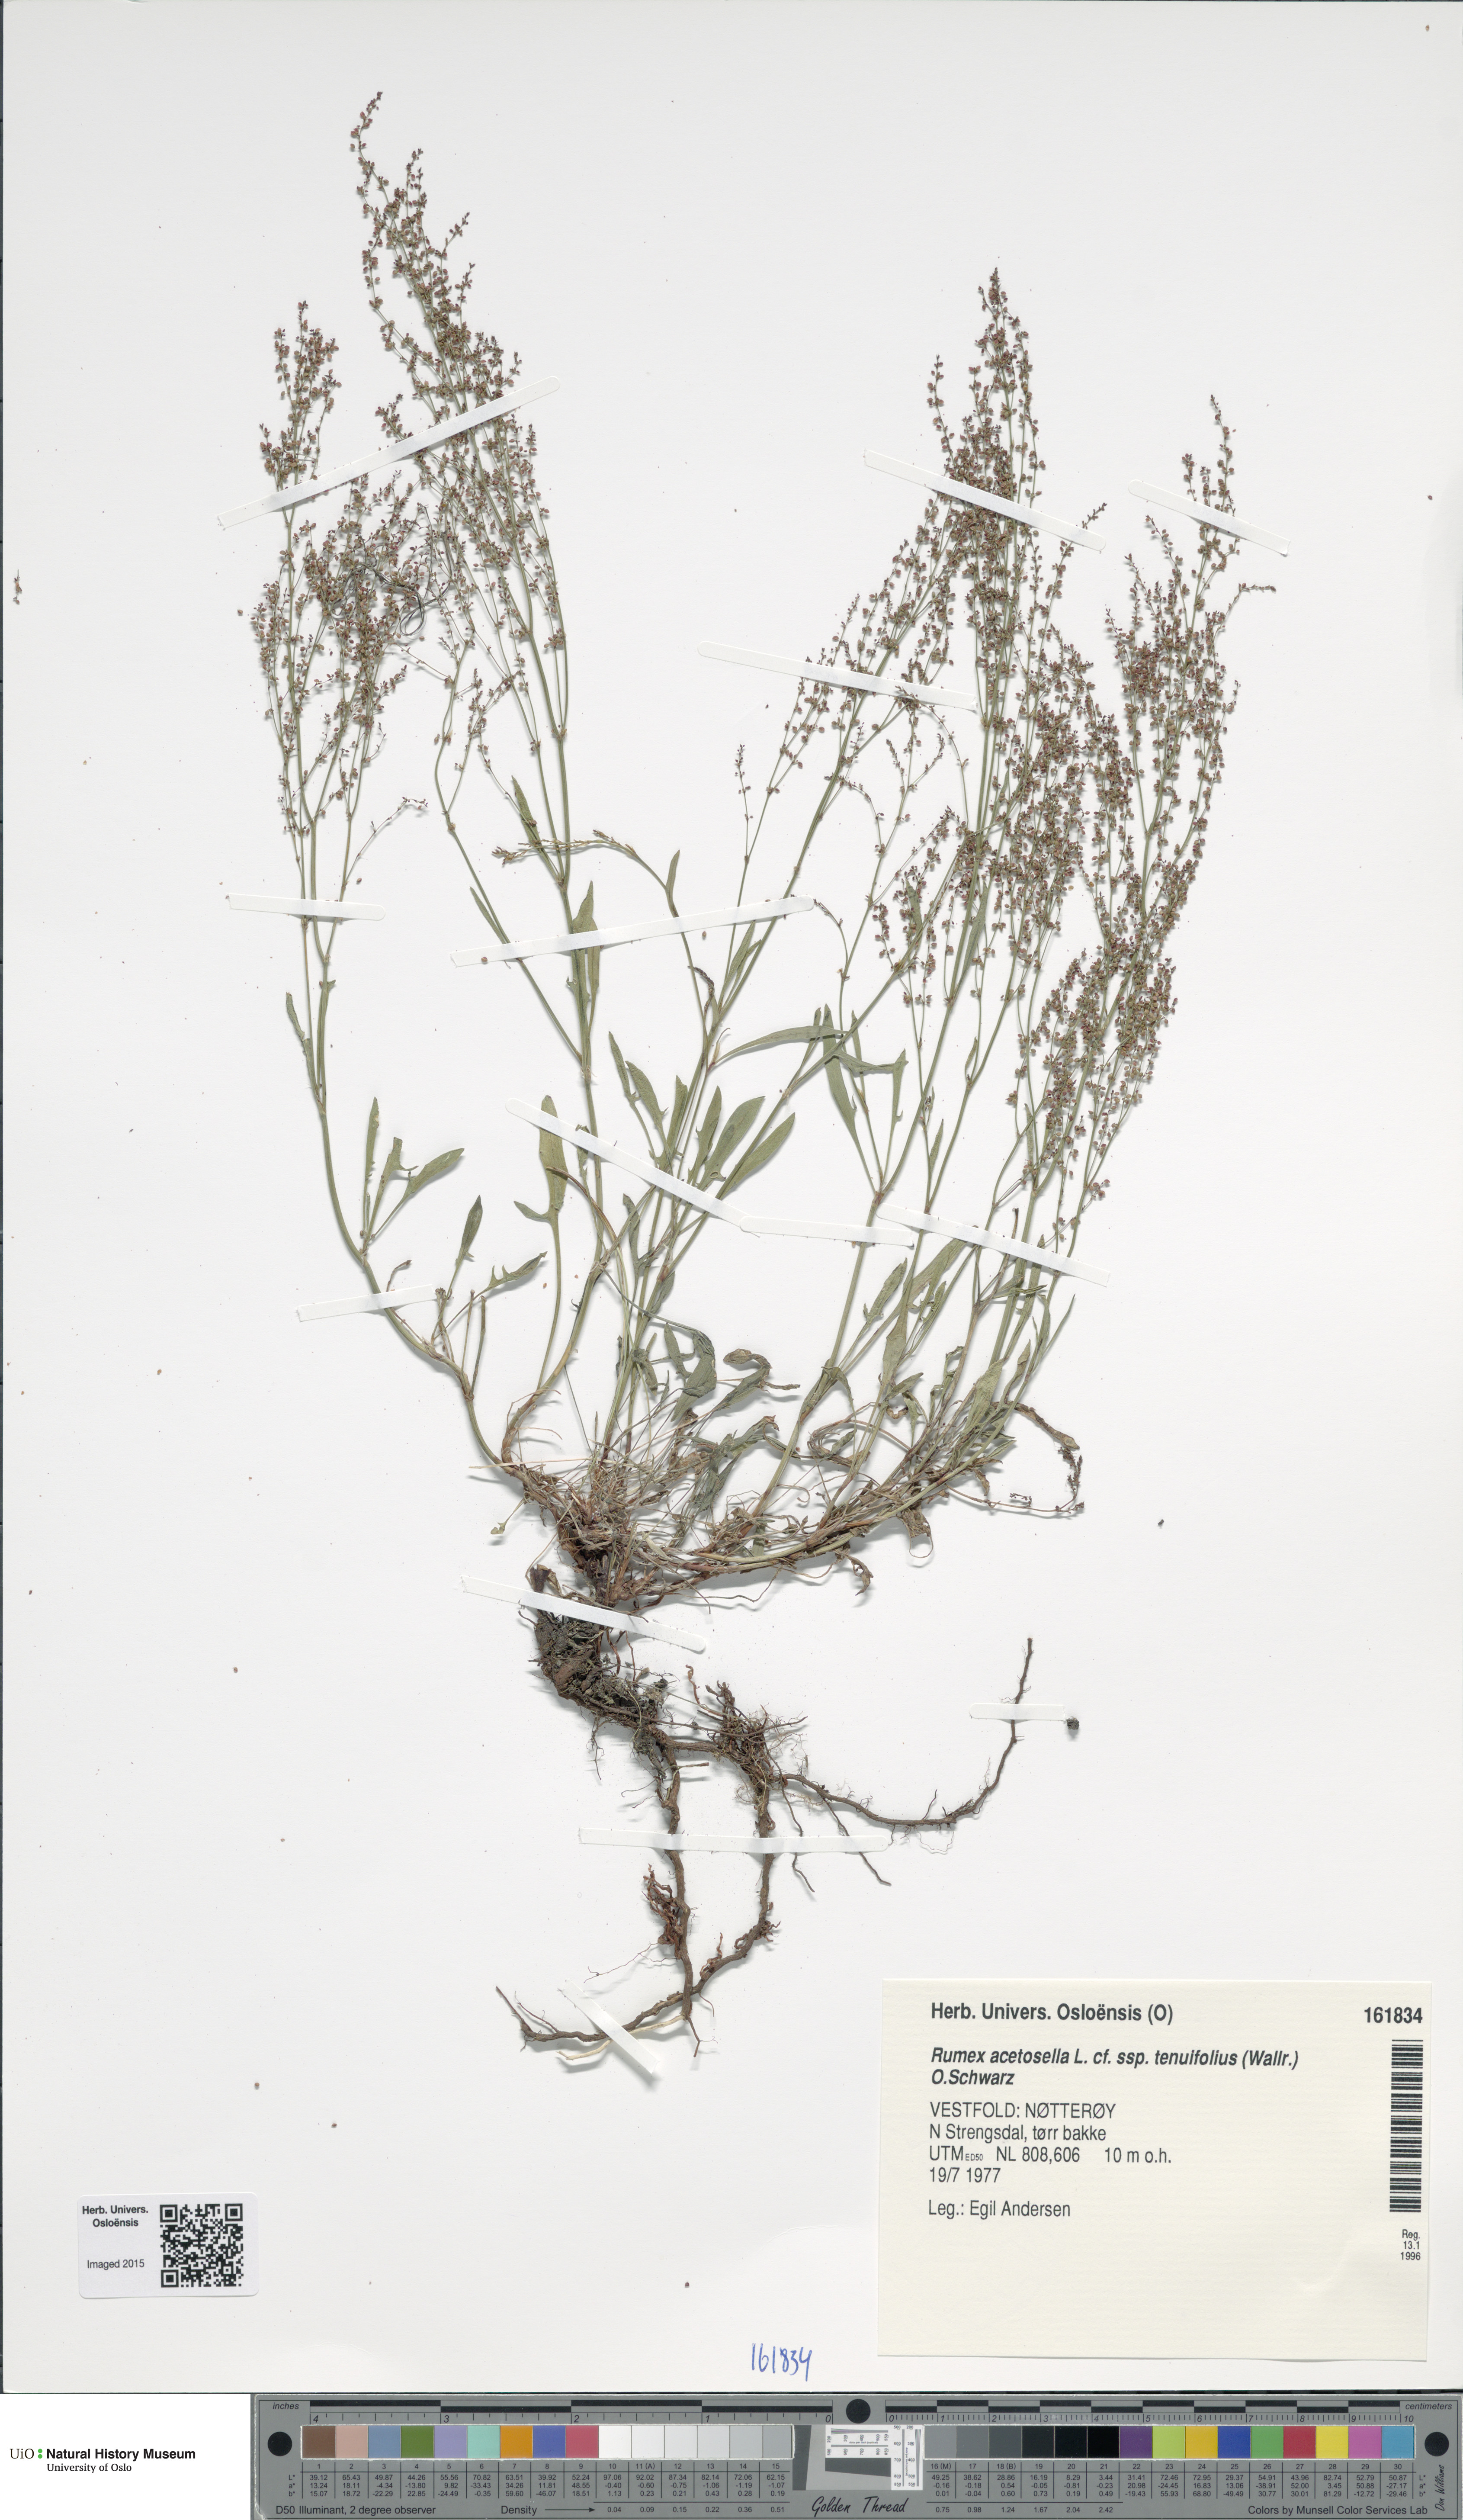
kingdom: Plantae
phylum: Tracheophyta
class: Magnoliopsida
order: Caryophyllales
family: Polygonaceae
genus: Rumex
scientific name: Rumex acetosella
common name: Common sheep sorrel
